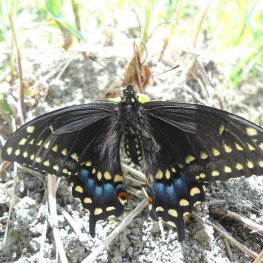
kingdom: Animalia
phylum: Arthropoda
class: Insecta
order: Lepidoptera
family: Papilionidae
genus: Papilio
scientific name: Papilio polyxenes
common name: Black Swallowtail
